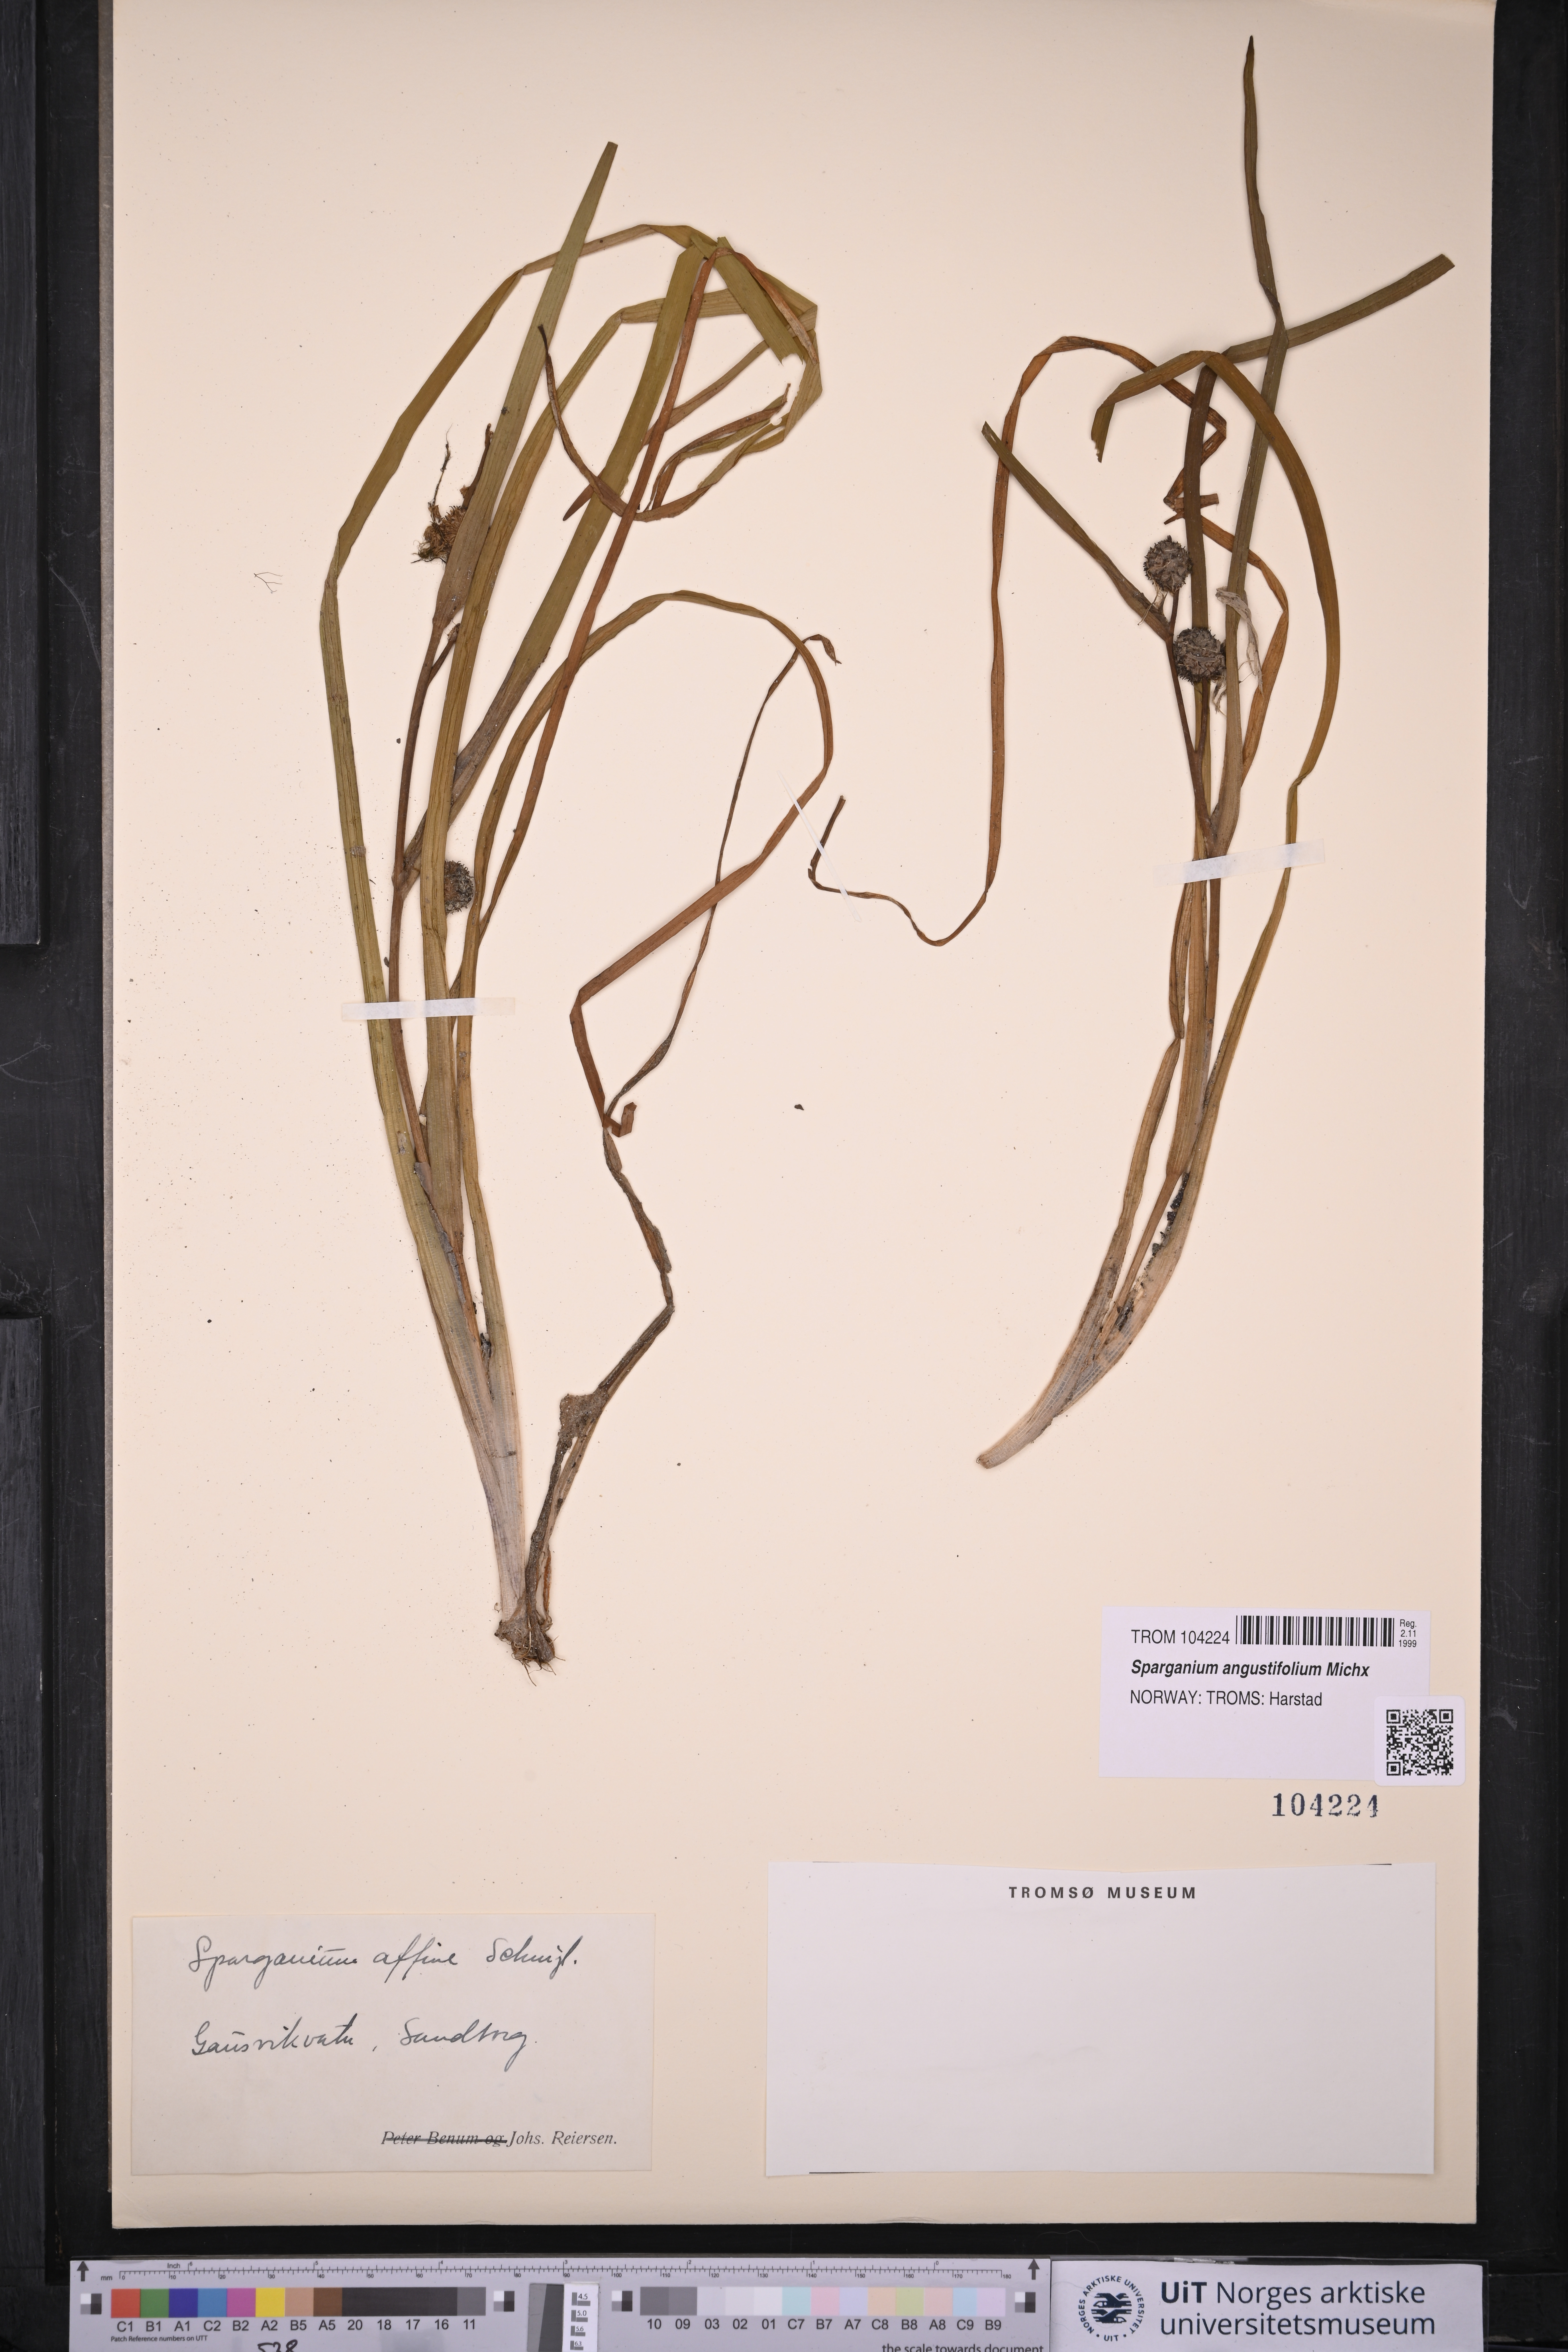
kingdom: Plantae
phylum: Tracheophyta
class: Liliopsida
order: Poales
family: Typhaceae
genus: Sparganium
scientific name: Sparganium angustifolium
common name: Floating bur-reed
